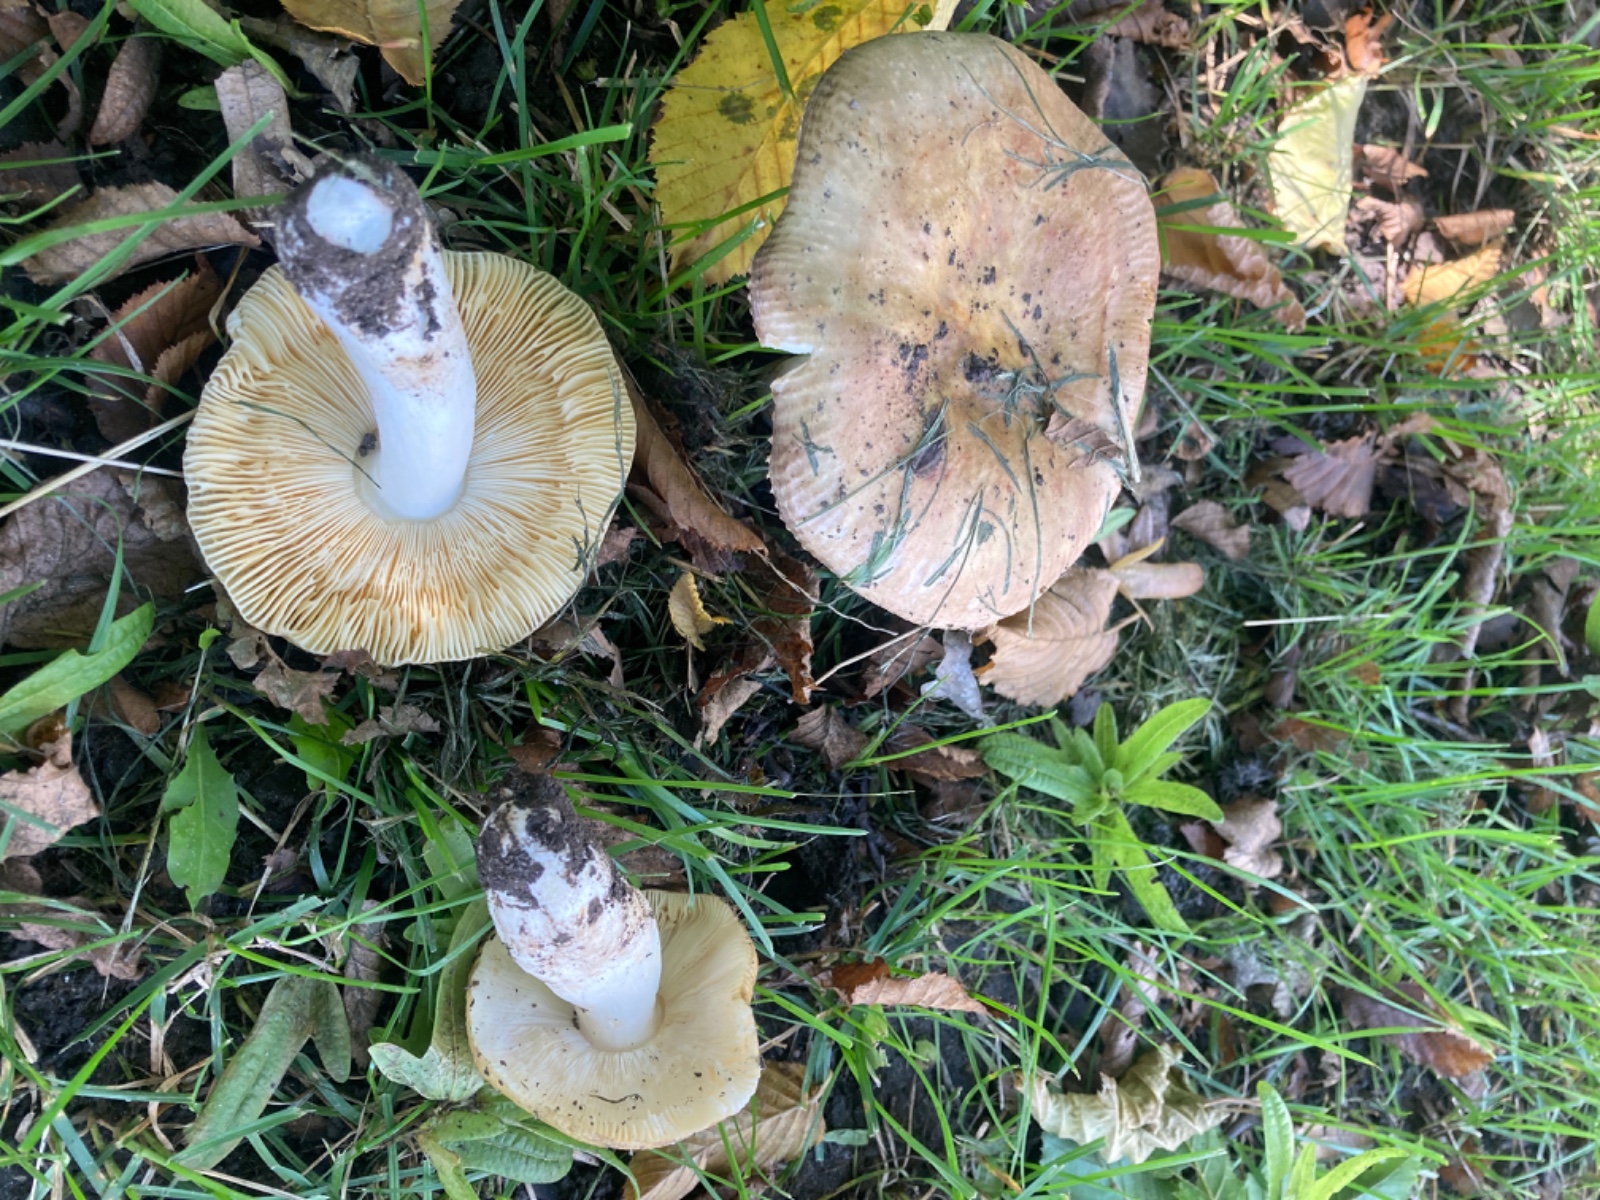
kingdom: Fungi
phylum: Basidiomycota
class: Agaricomycetes
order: Russulales
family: Russulaceae
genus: Russula
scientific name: Russula carpini
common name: avnbøg-skørhat
